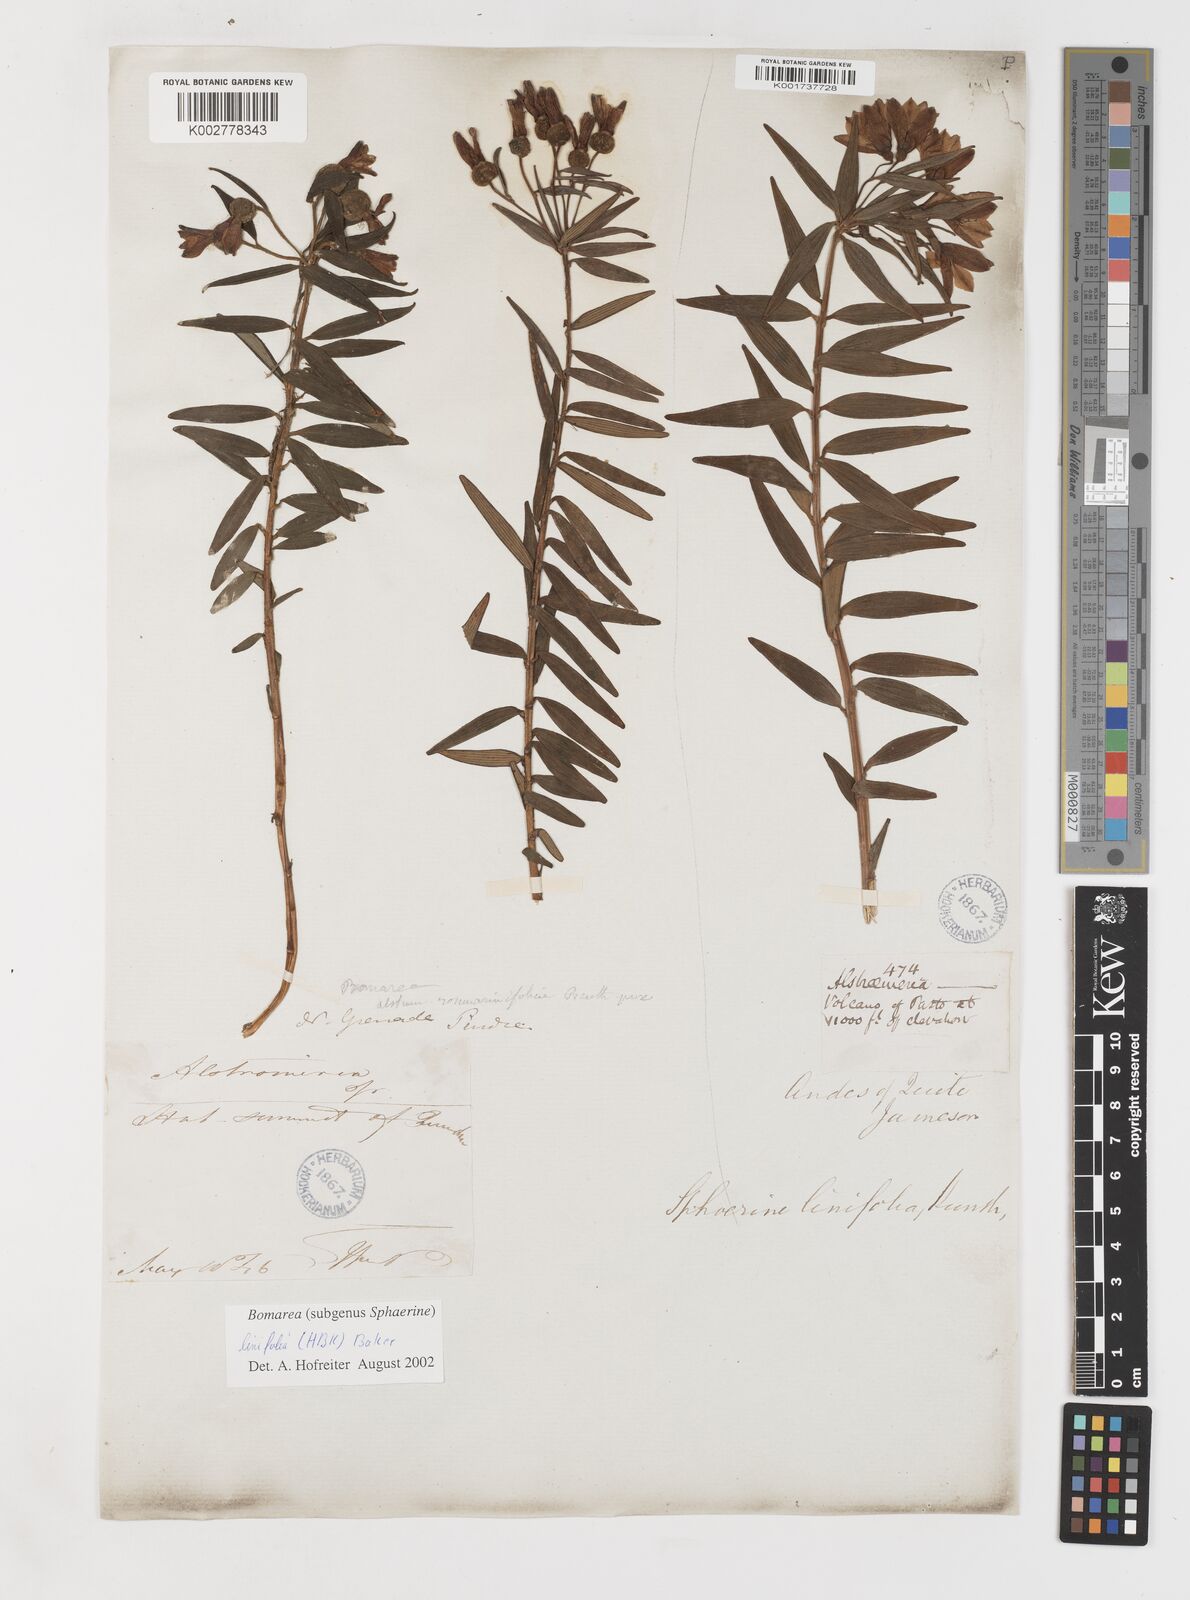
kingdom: Plantae
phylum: Tracheophyta
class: Liliopsida
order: Liliales
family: Alstroemeriaceae
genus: Bomarea
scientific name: Bomarea linifolia
